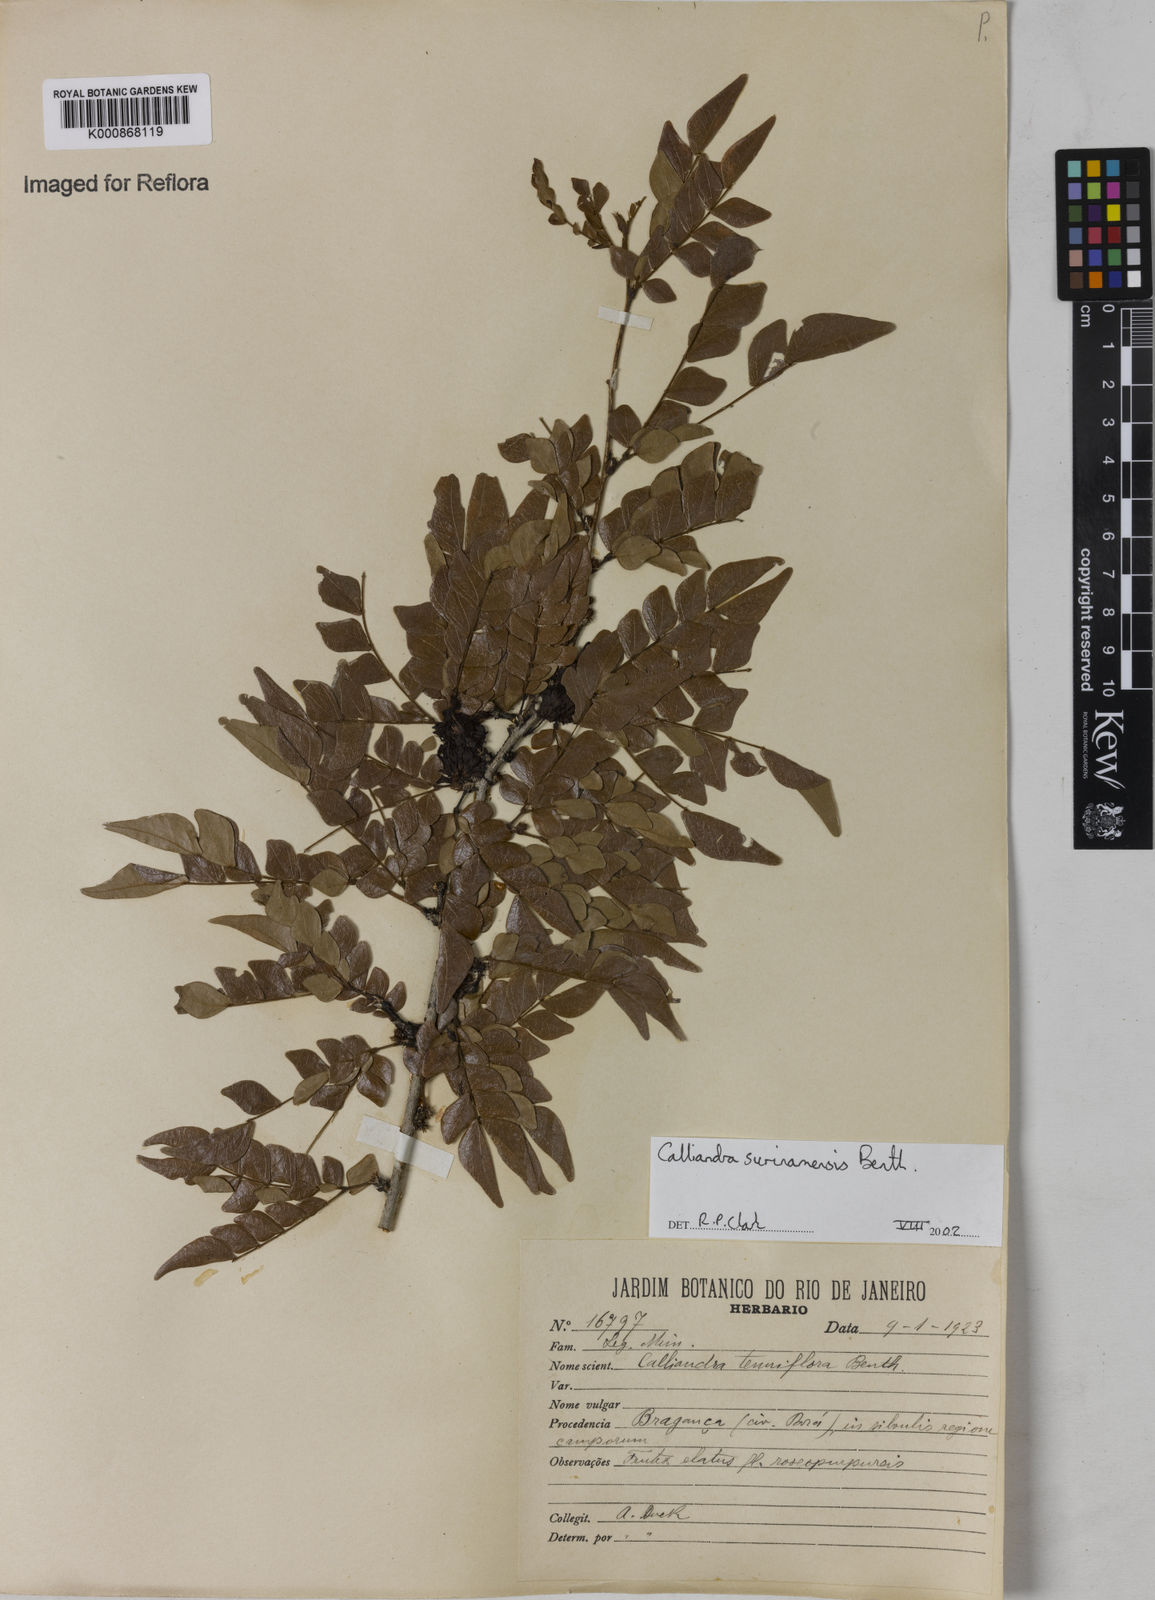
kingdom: Plantae
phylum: Tracheophyta
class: Magnoliopsida
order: Fabales
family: Fabaceae
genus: Calliandra
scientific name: Calliandra surinamensis
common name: Pink powder puff
